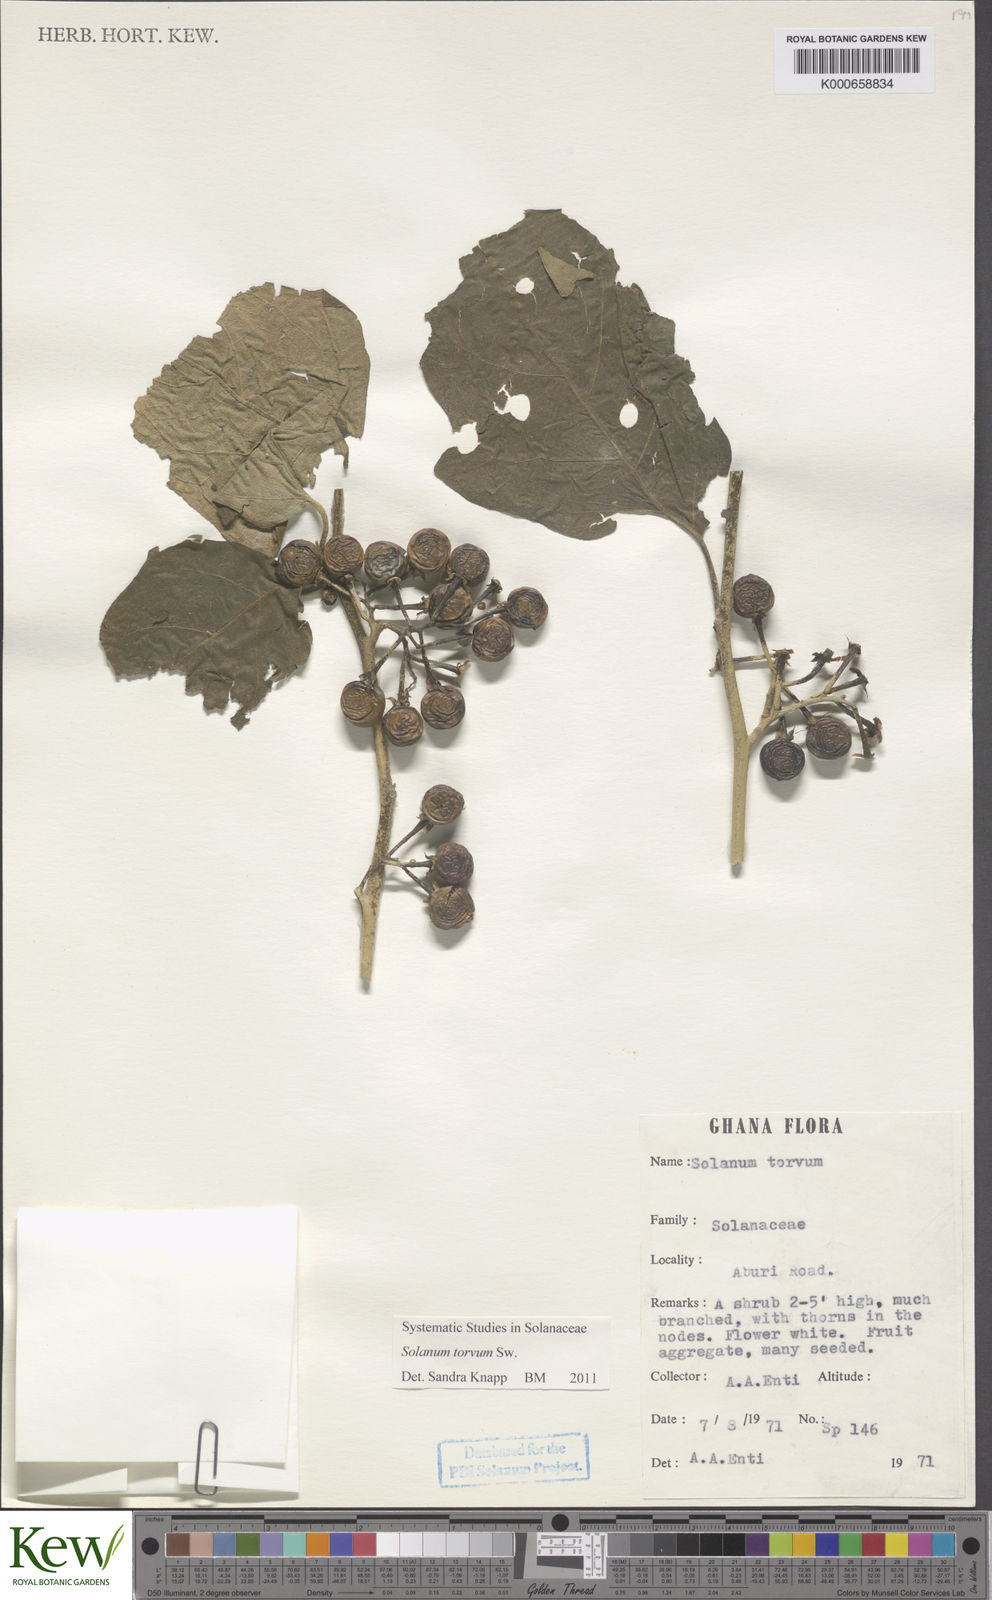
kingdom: Plantae
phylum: Tracheophyta
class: Magnoliopsida
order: Solanales
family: Solanaceae
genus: Solanum
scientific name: Solanum torvum
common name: Turkey berry
